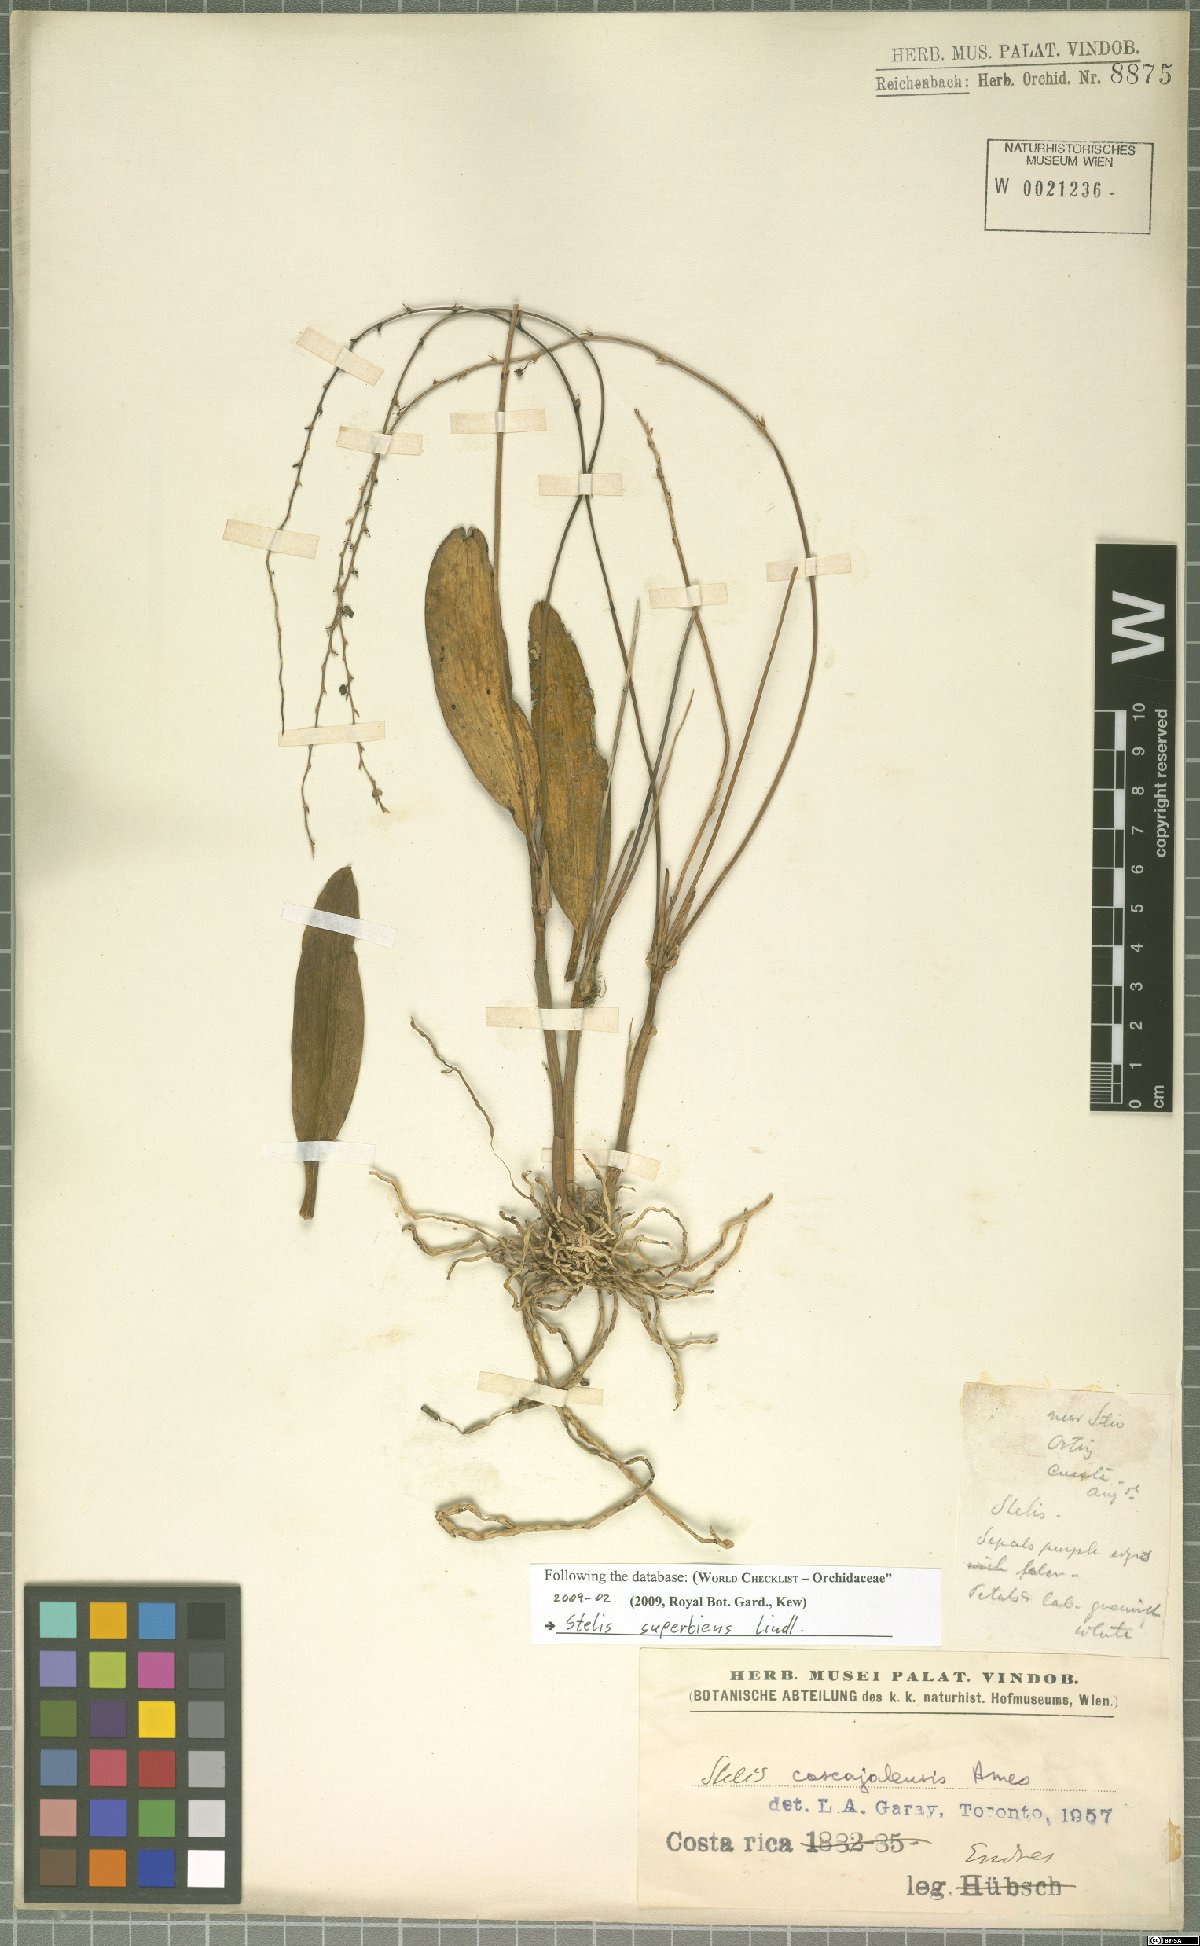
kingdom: Plantae
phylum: Tracheophyta
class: Liliopsida
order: Asparagales
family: Orchidaceae
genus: Stelis
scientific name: Stelis superbiens
